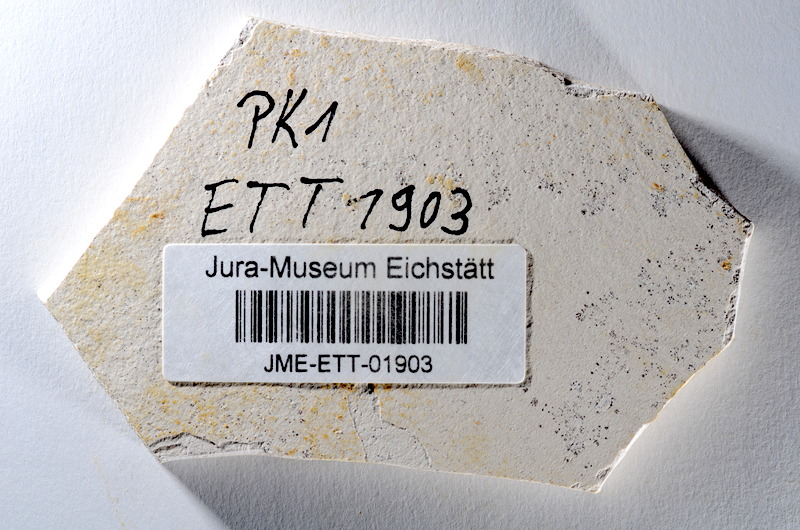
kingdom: Animalia
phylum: Chordata
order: Salmoniformes
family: Orthogonikleithridae
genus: Orthogonikleithrus
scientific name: Orthogonikleithrus hoelli
